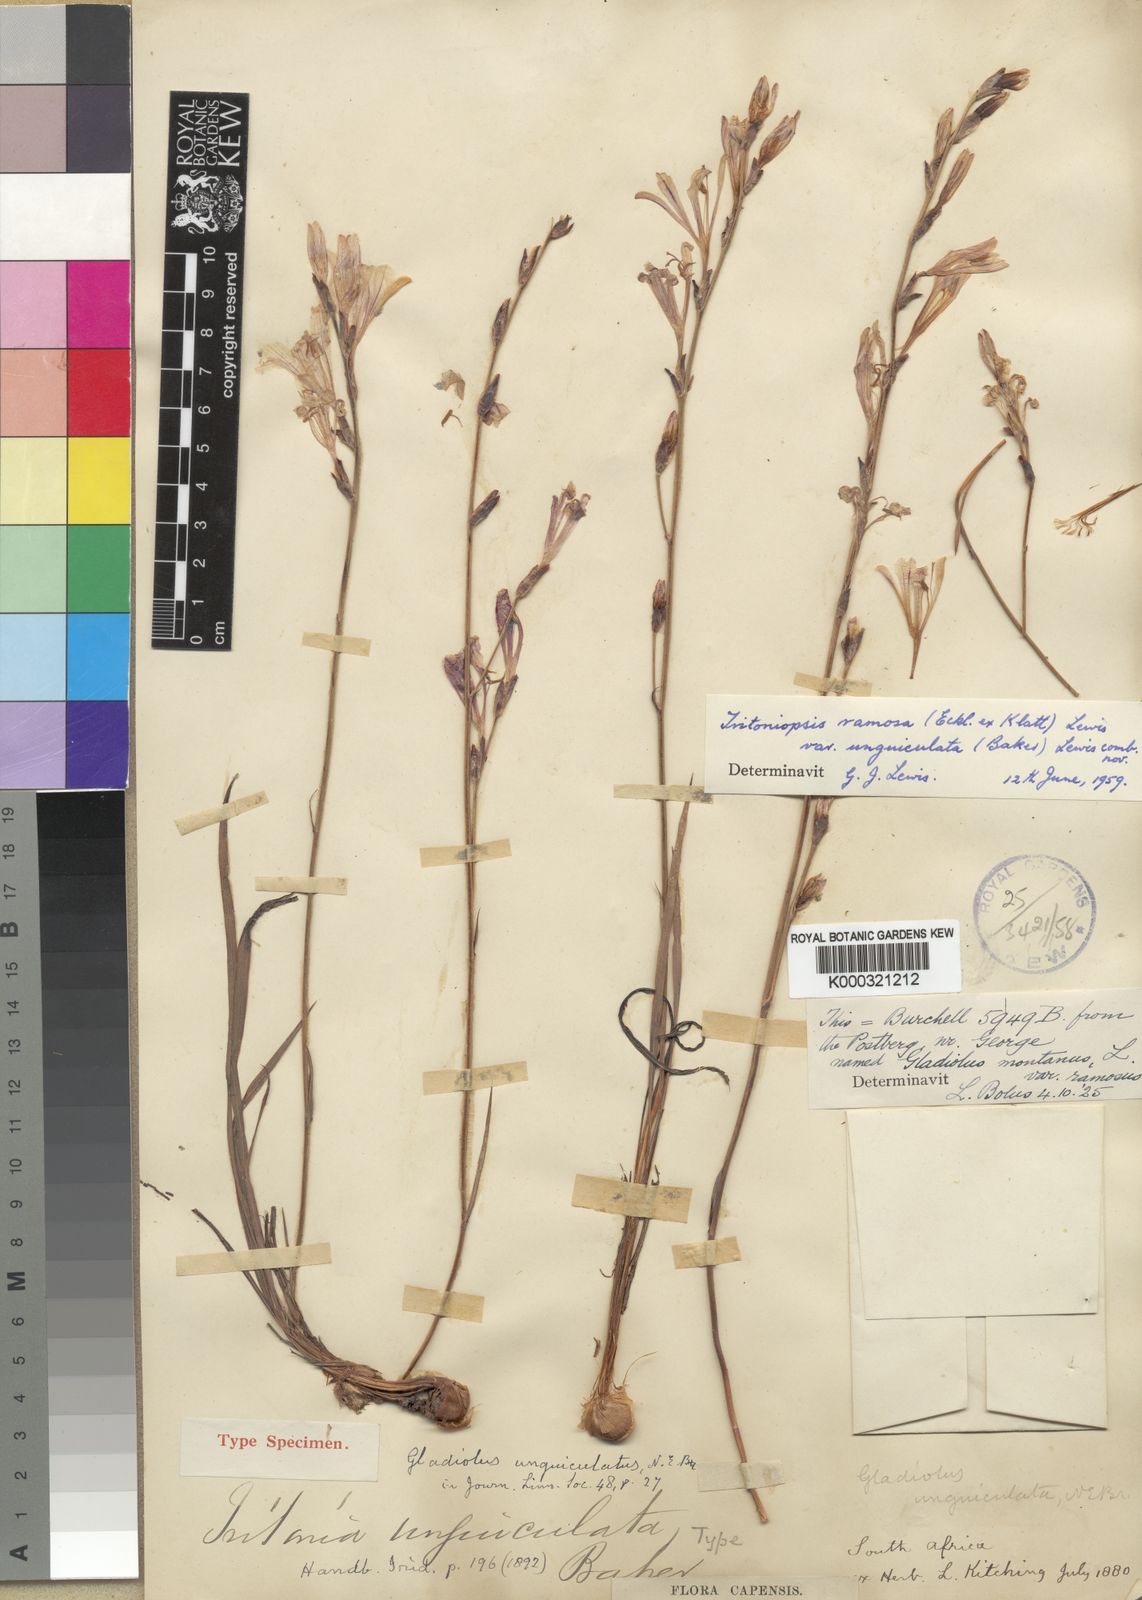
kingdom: Plantae
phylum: Tracheophyta
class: Liliopsida
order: Asparagales
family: Iridaceae
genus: Tritoniopsis
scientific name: Tritoniopsis ramosa
